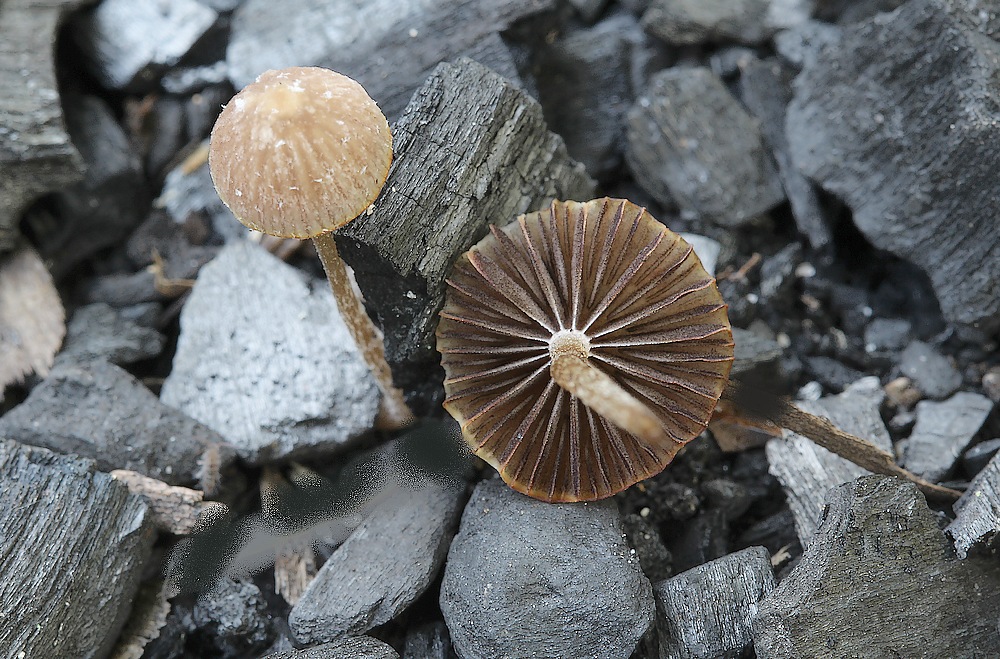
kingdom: Fungi
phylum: Basidiomycota
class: Agaricomycetes
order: Agaricales
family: Psathyrellaceae
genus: Psathyrella
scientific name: Psathyrella prona
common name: vej-mørkhat
